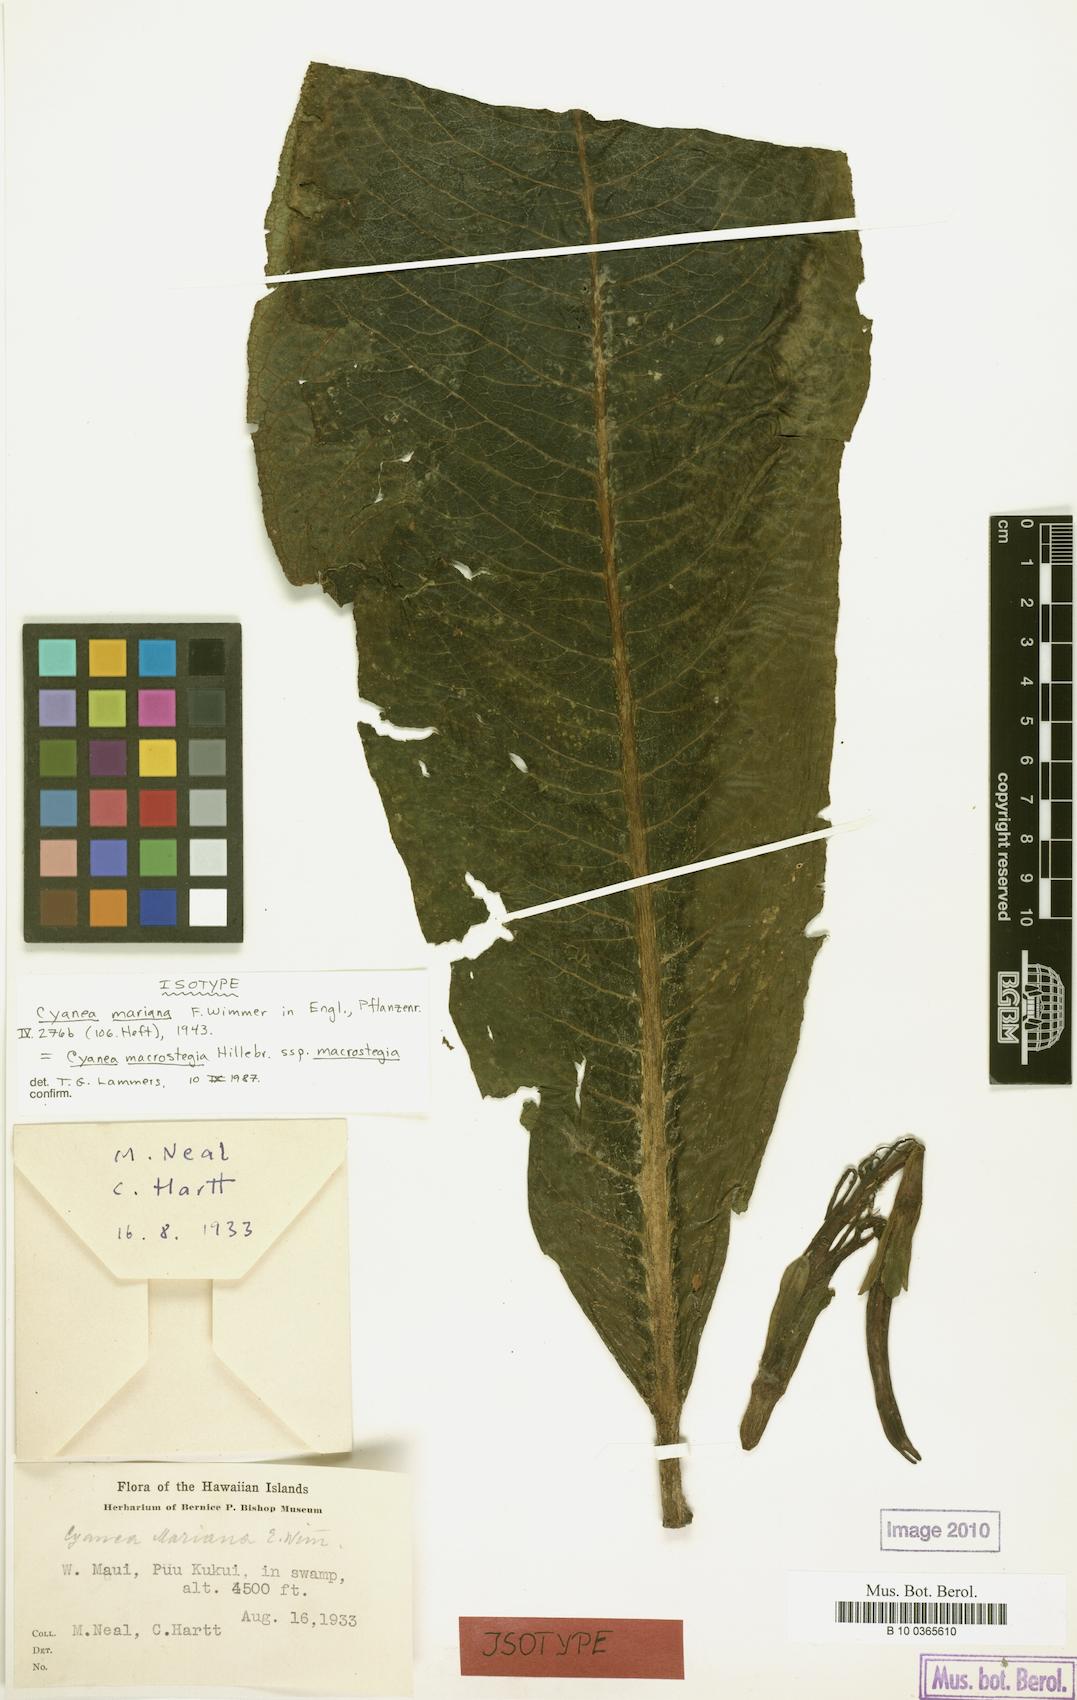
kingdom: Plantae
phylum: Tracheophyta
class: Magnoliopsida
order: Asterales
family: Campanulaceae
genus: Cyanea
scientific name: Cyanea macrostegia
